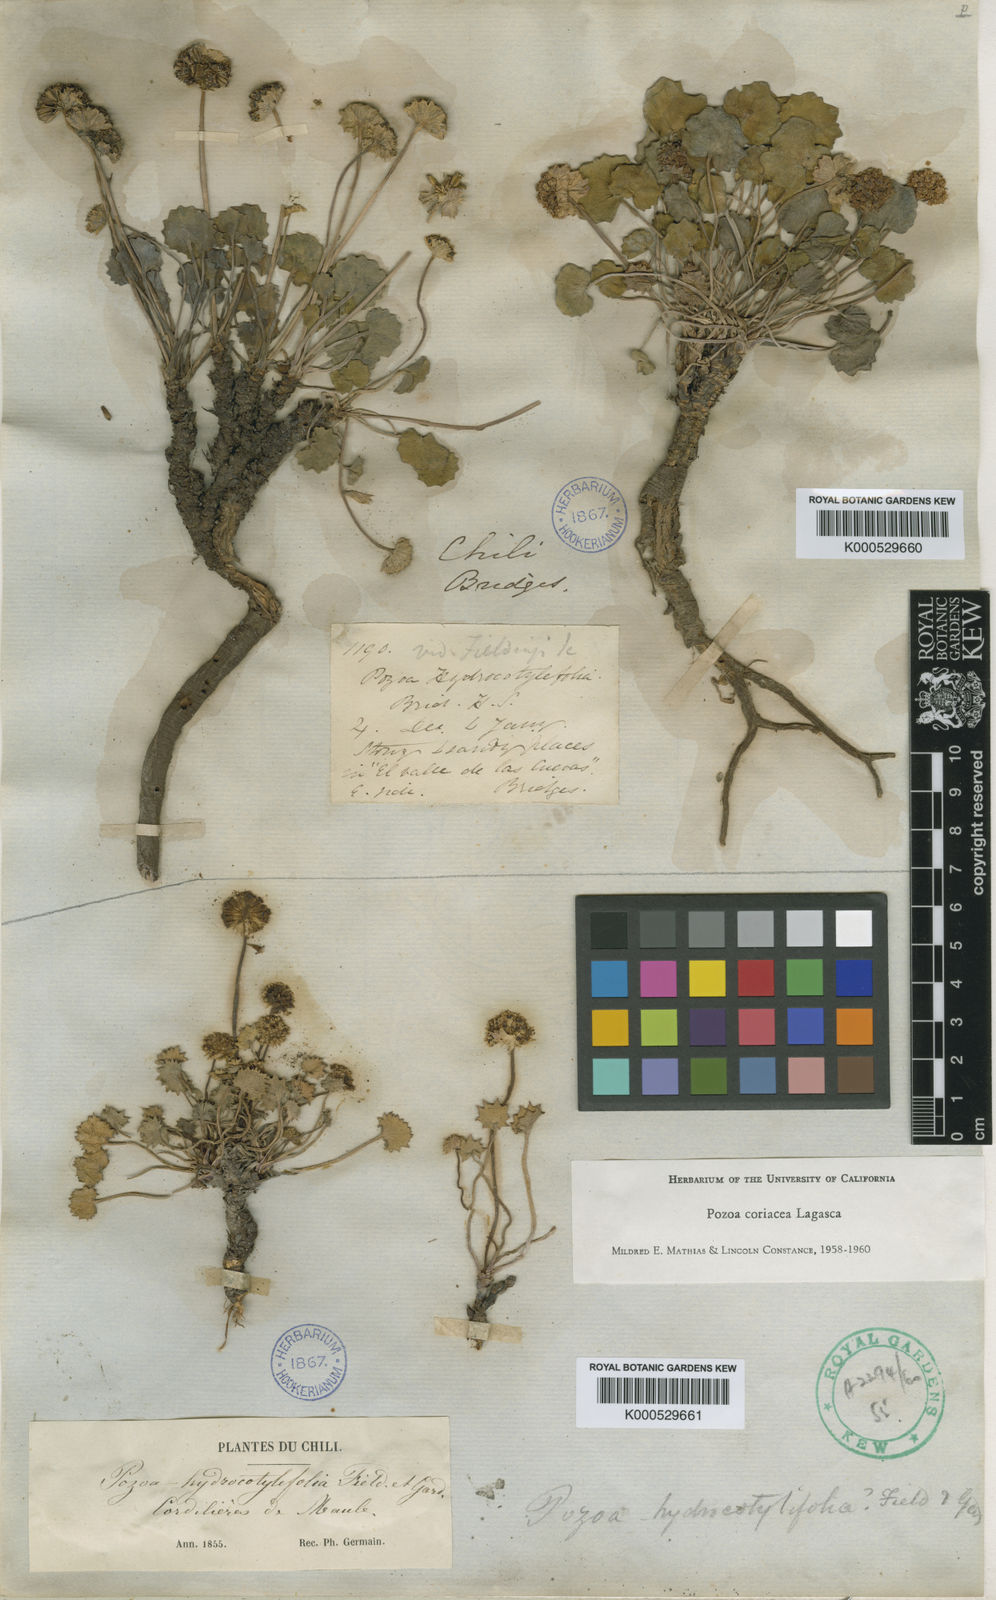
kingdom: Plantae
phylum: Tracheophyta
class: Magnoliopsida
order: Apiales
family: Apiaceae
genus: Pozoa
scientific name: Pozoa coriacea
